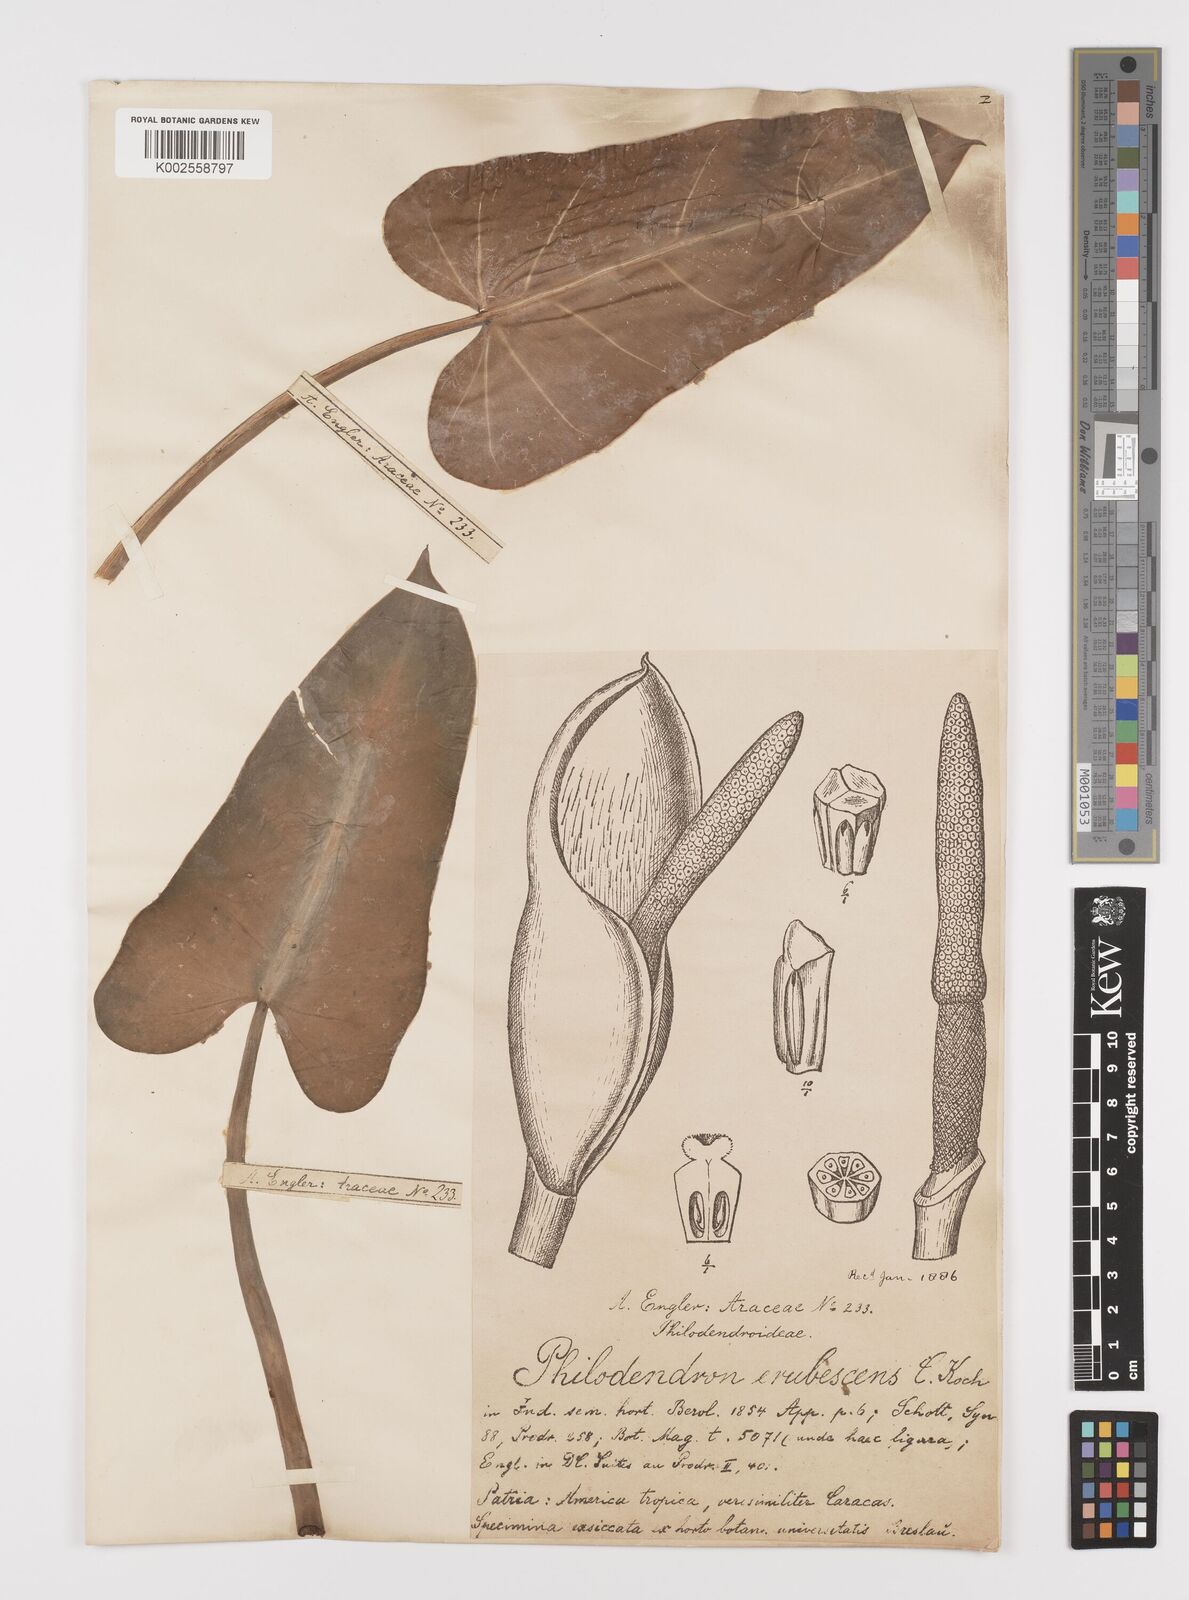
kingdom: Plantae
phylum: Tracheophyta
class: Liliopsida
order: Alismatales
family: Araceae
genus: Philodendron
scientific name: Philodendron erubescens
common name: Philodendron
